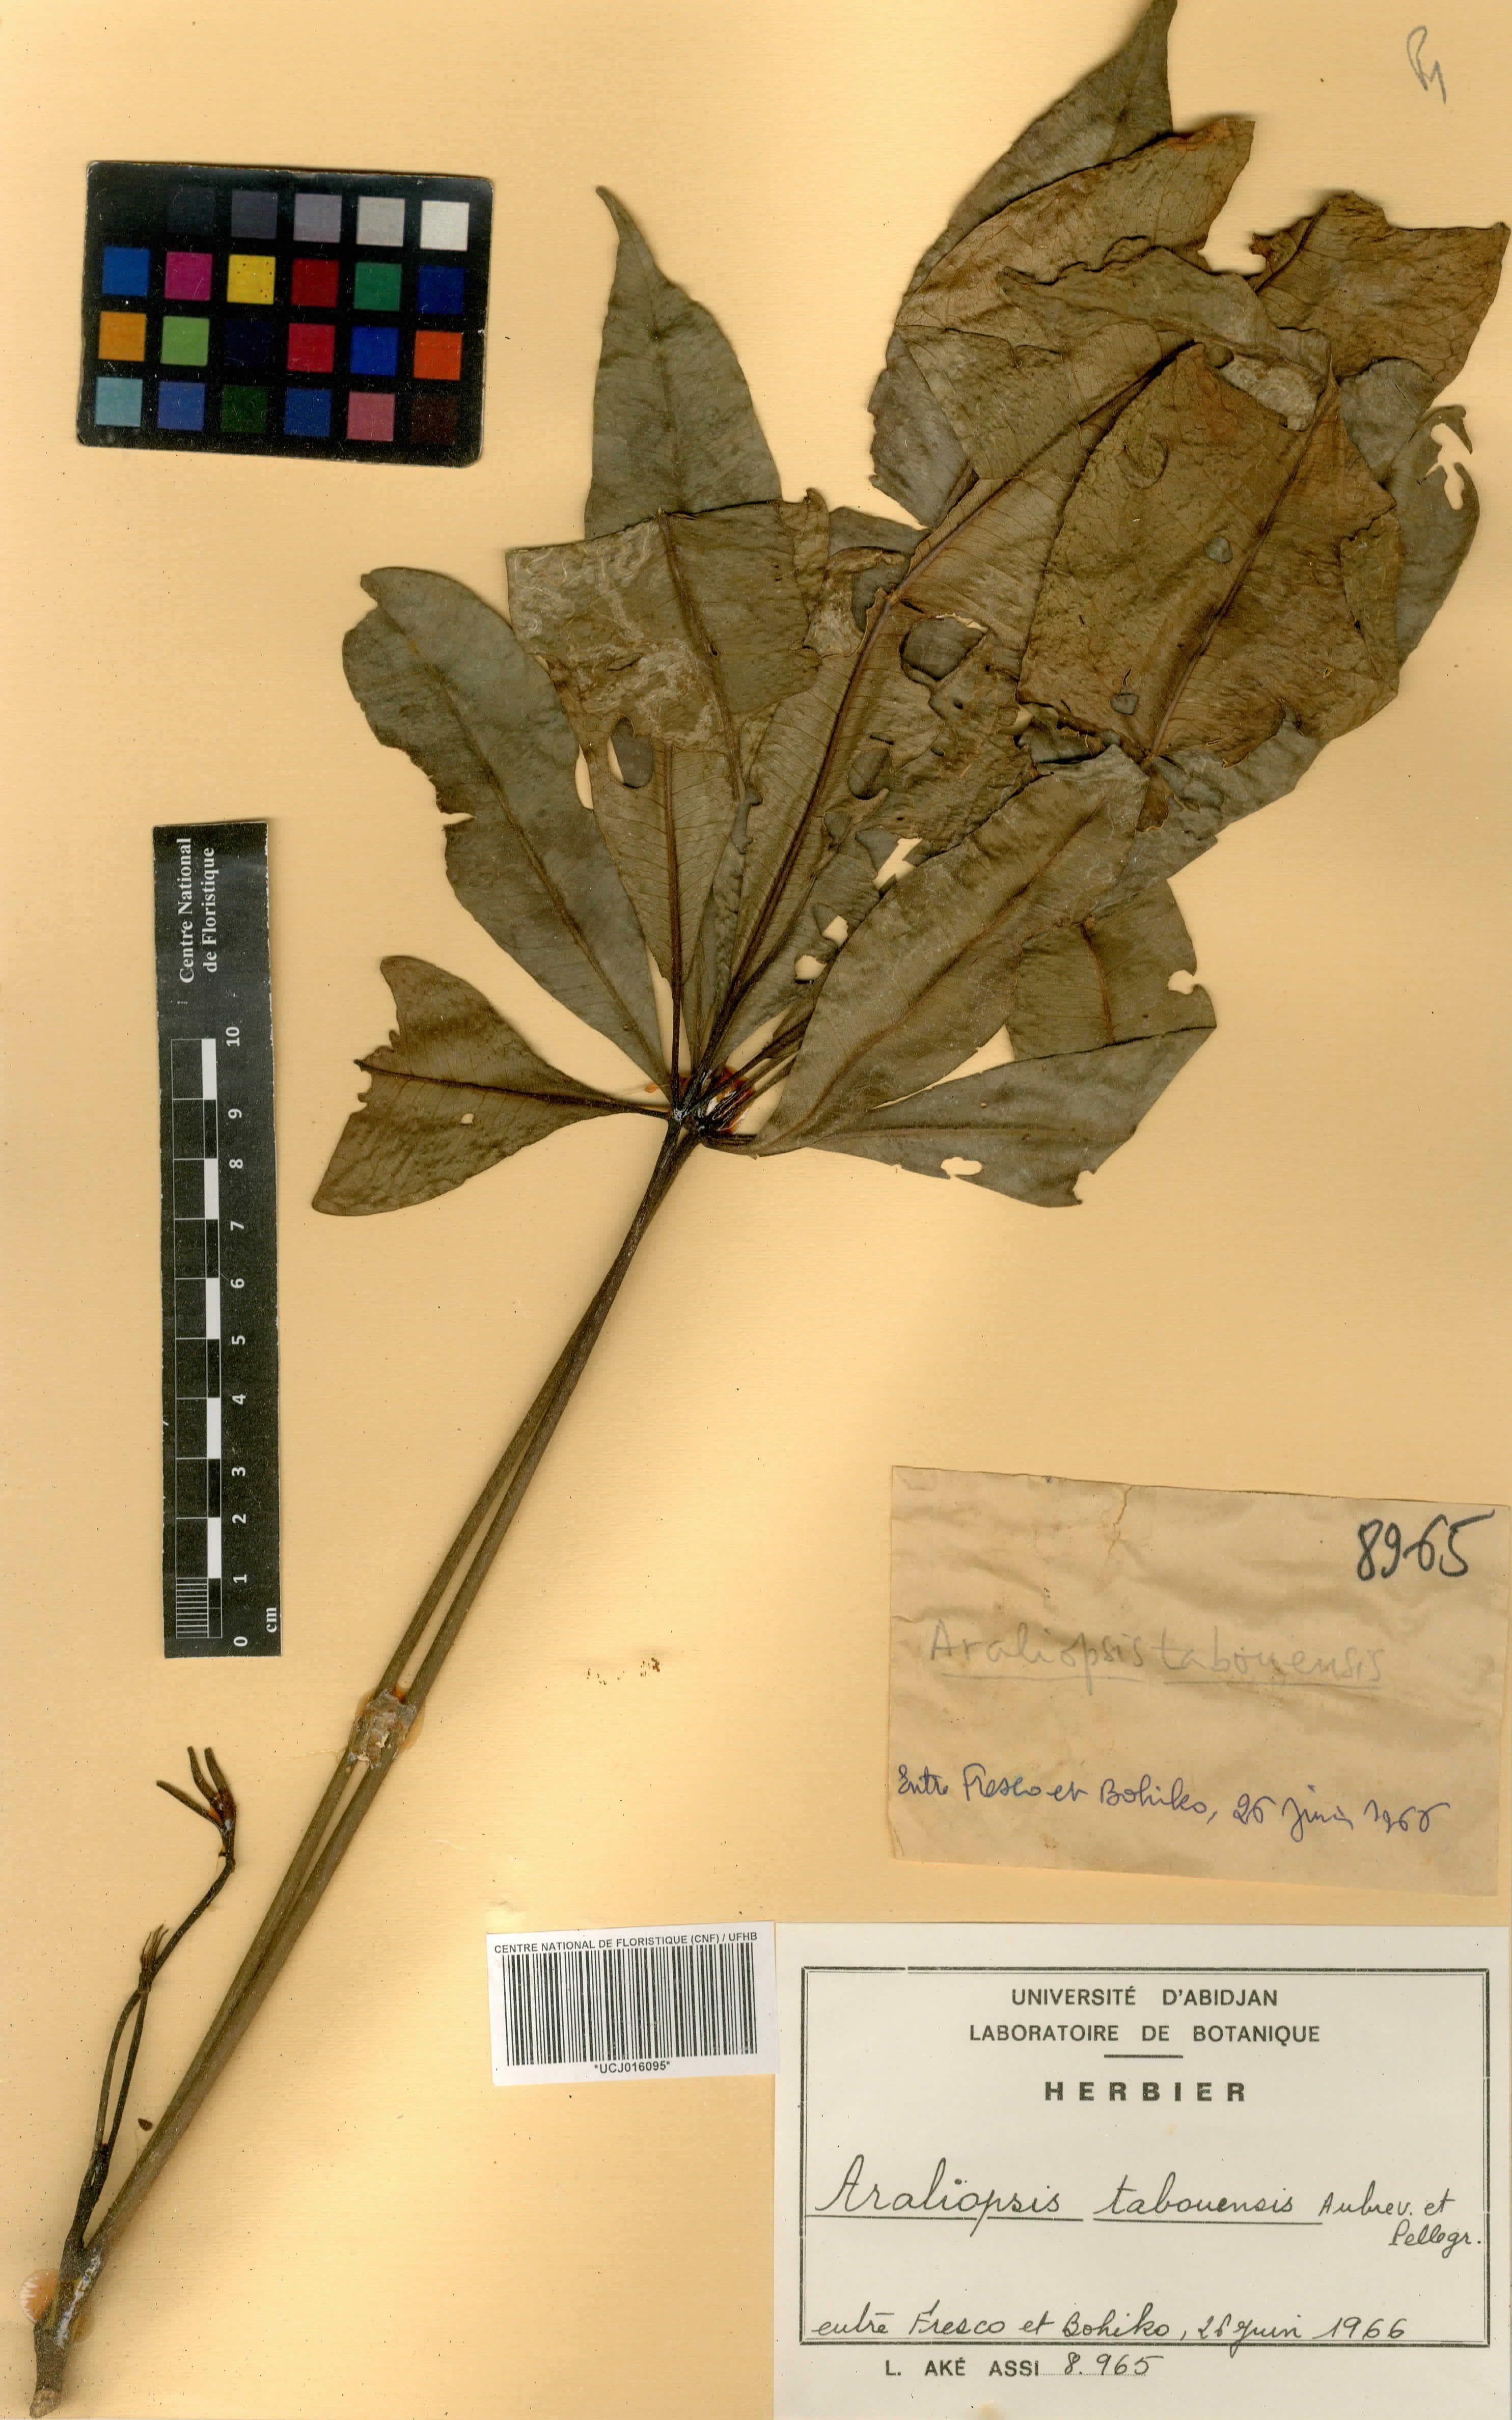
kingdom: Plantae
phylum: Tracheophyta
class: Magnoliopsida
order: Sapindales
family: Rutaceae
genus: Vepris
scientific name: Vepris tabouensis
